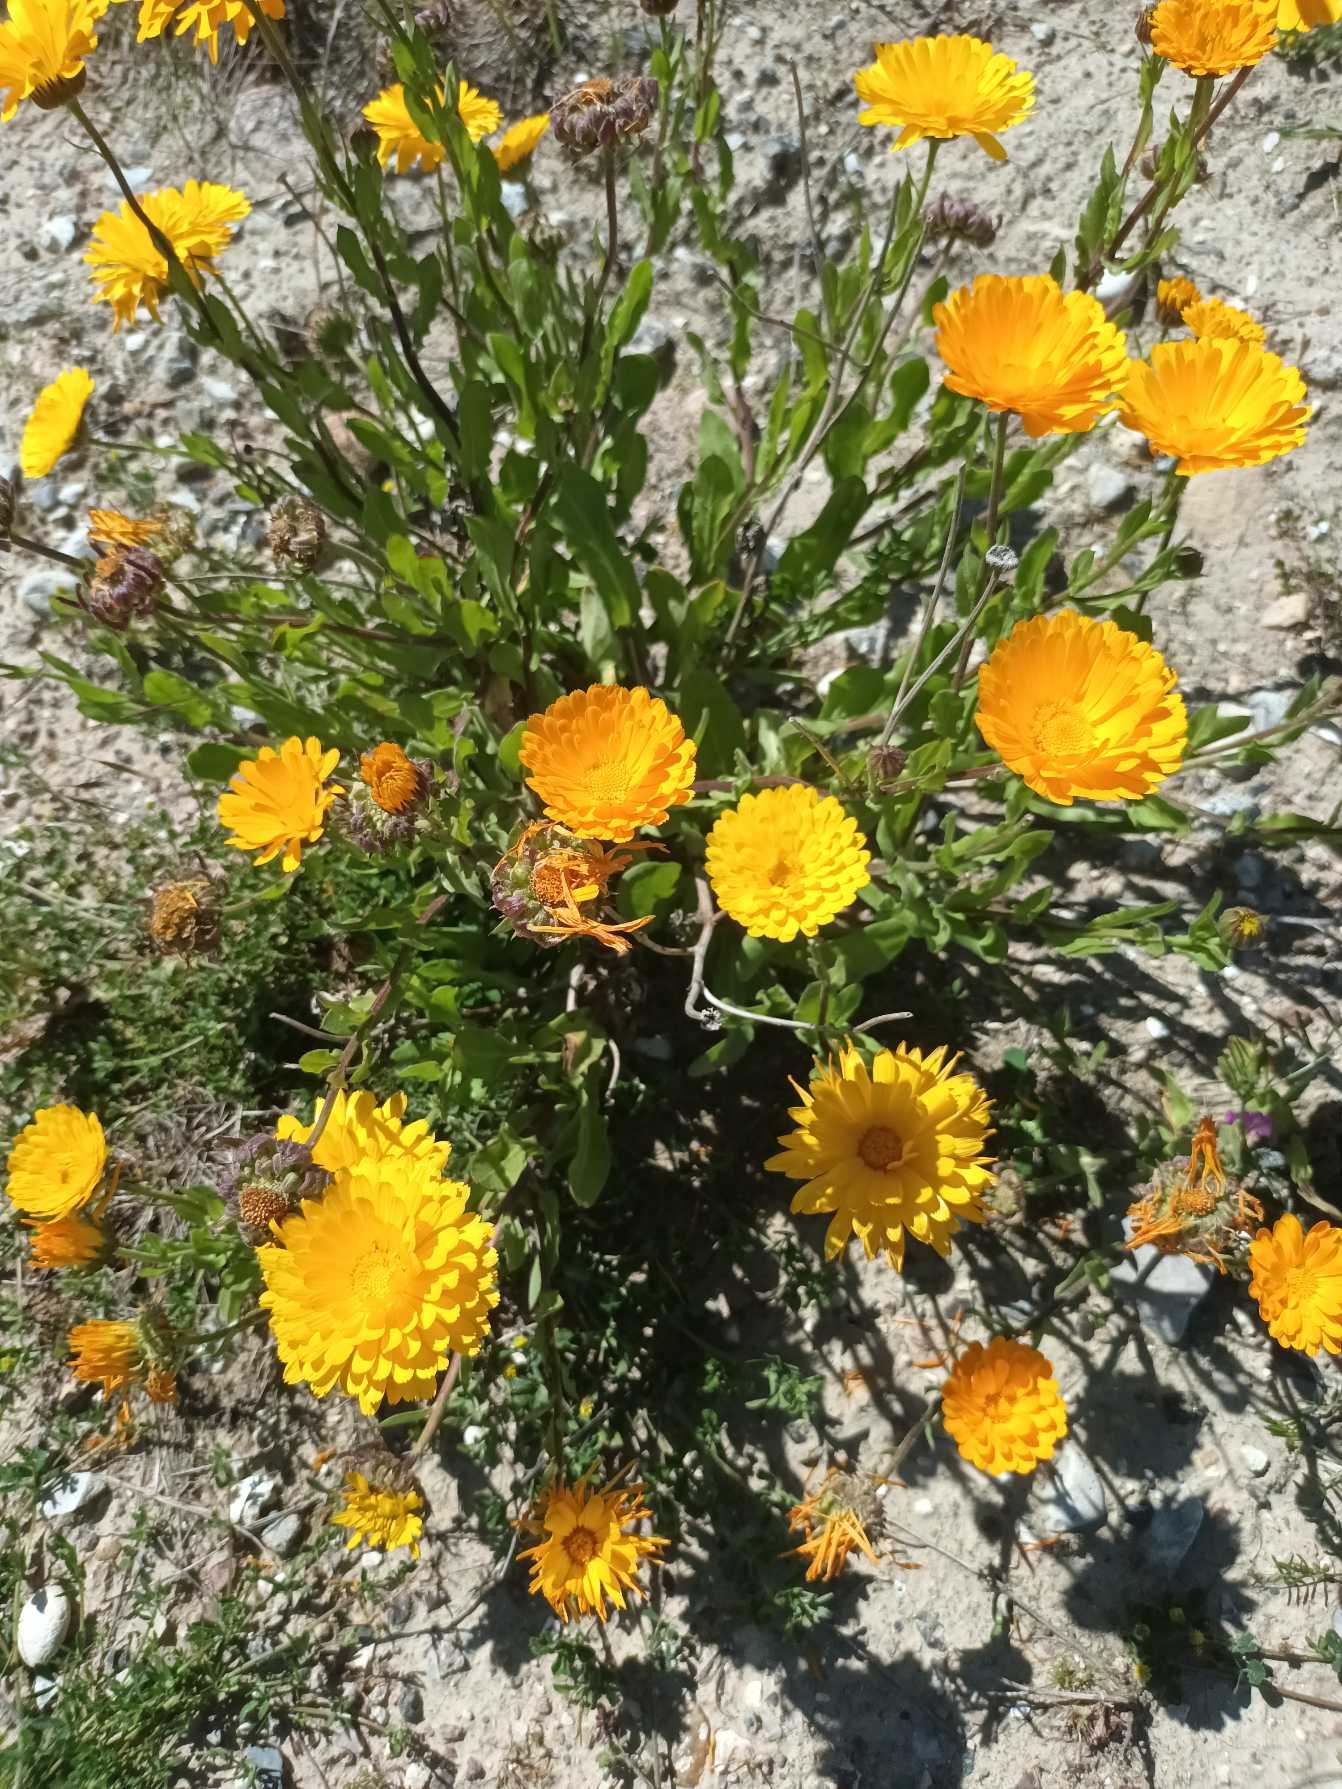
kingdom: Plantae
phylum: Tracheophyta
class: Magnoliopsida
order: Asterales
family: Asteraceae
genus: Calendula
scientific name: Calendula officinalis
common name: Have-morgenfrue
